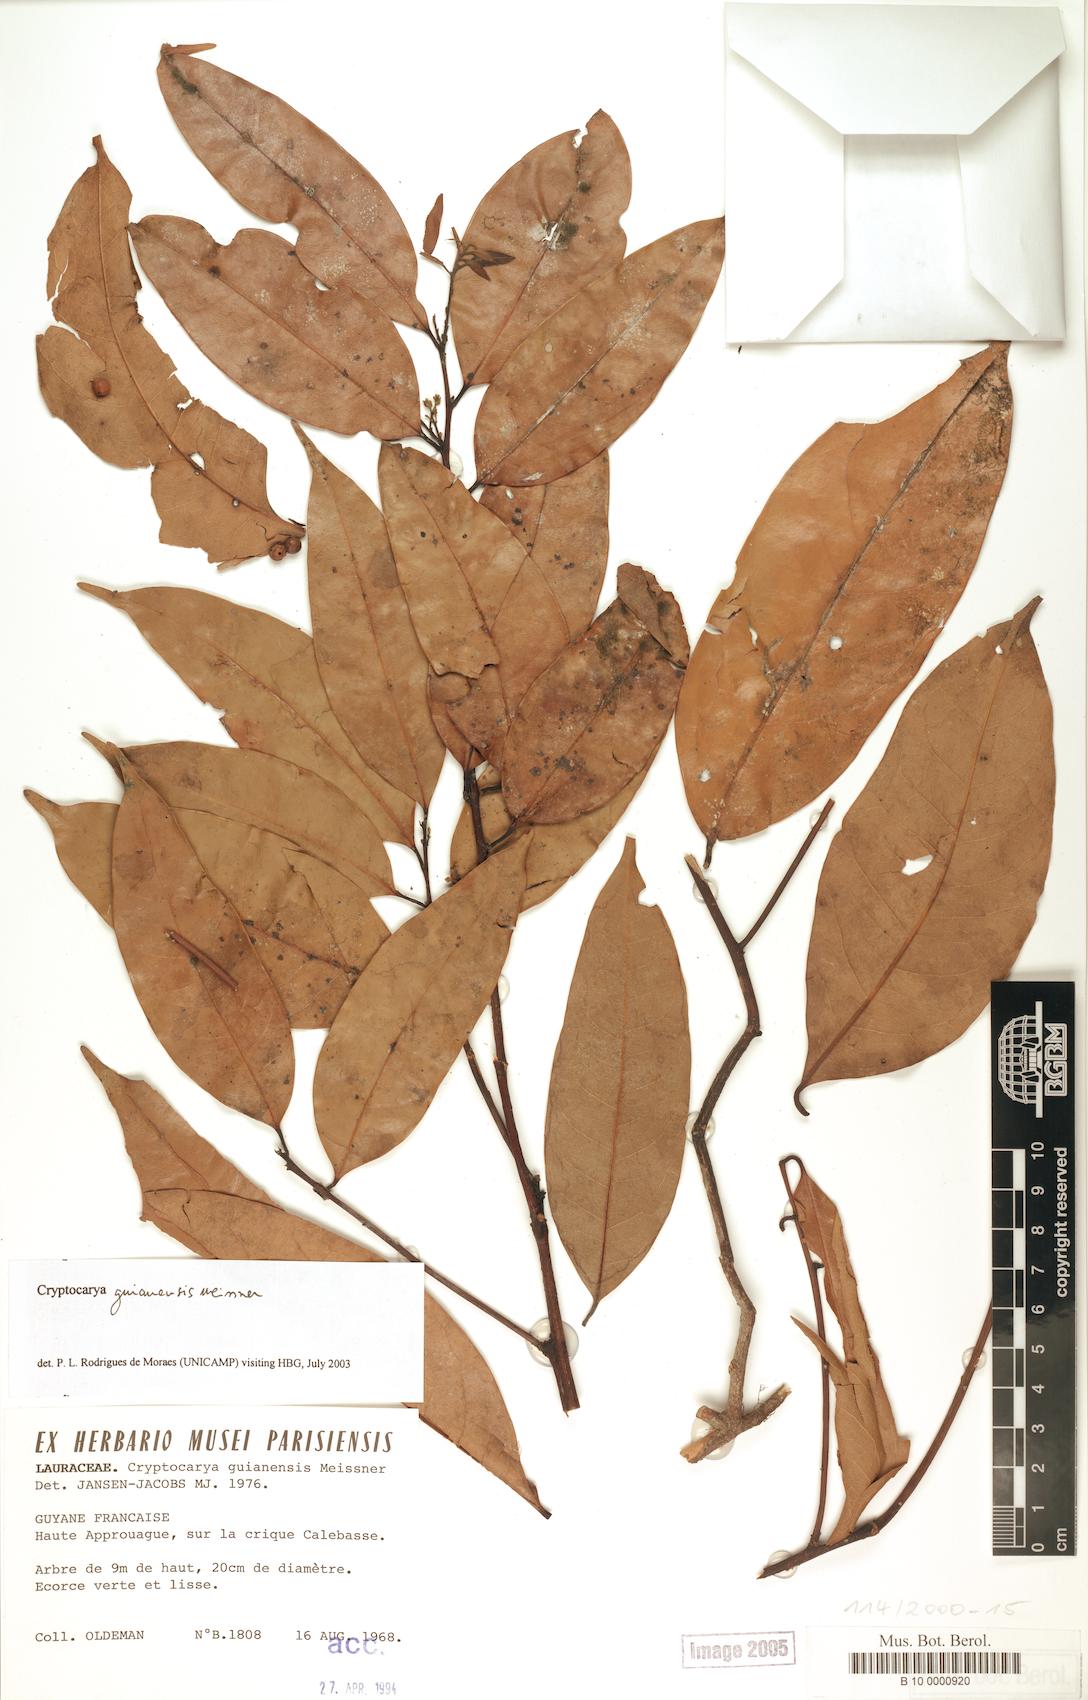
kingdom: Plantae
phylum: Tracheophyta
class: Magnoliopsida
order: Laurales
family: Lauraceae
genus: Cryptocarya
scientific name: Cryptocarya guianensis
